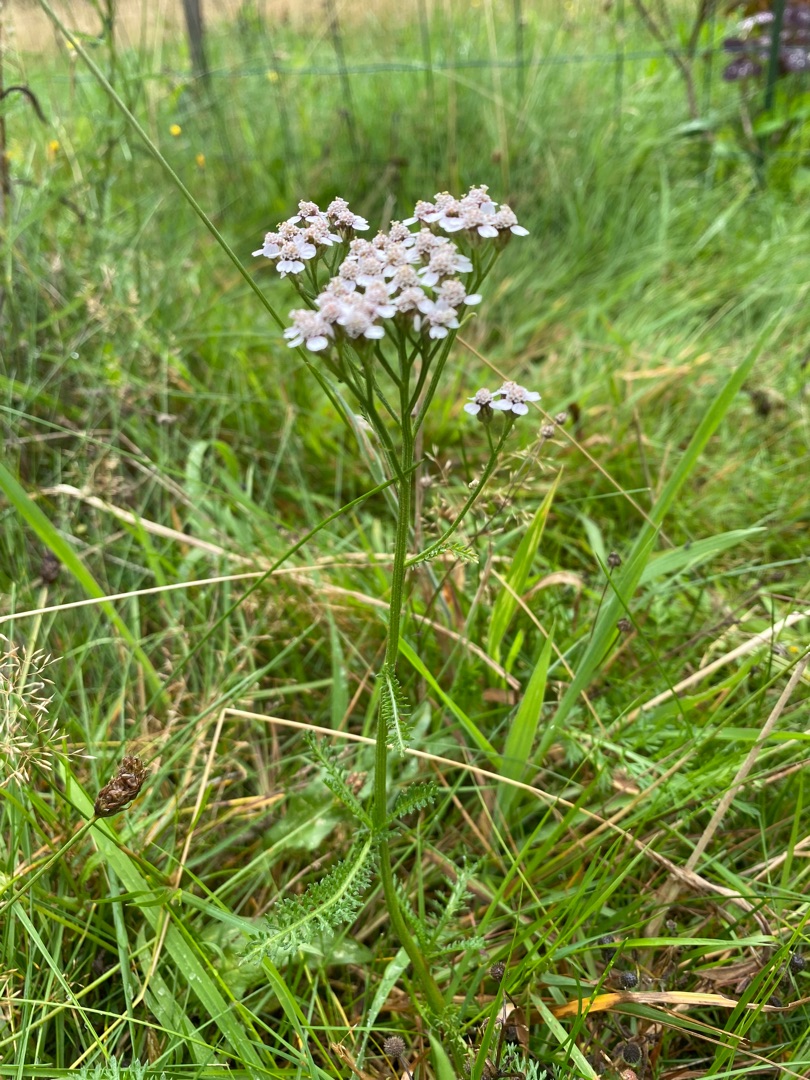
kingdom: Plantae
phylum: Tracheophyta
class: Magnoliopsida
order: Asterales
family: Asteraceae
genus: Achillea
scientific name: Achillea millefolium
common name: Almindelig røllike
